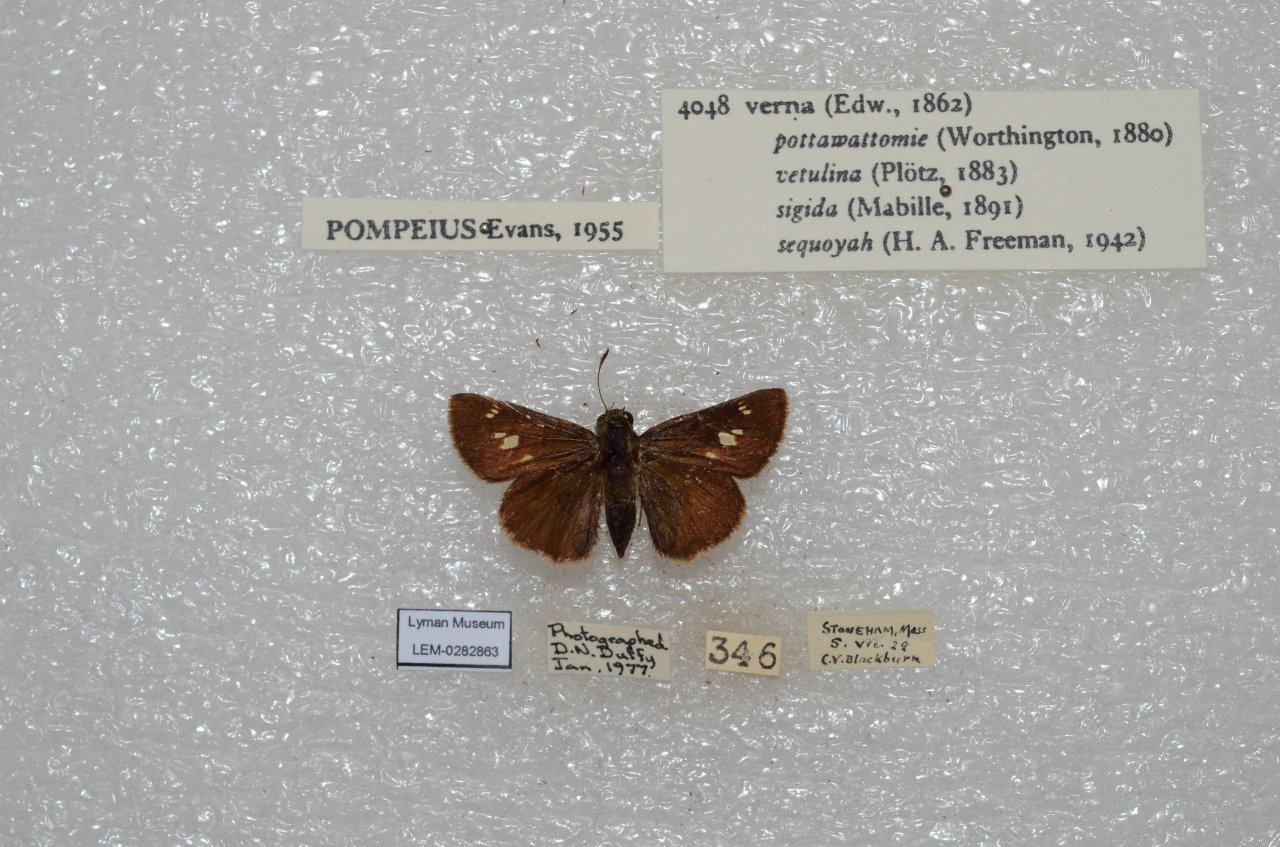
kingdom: Animalia
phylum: Arthropoda
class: Insecta
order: Lepidoptera
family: Hesperiidae
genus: Vernia
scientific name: Vernia verna
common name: Little Glassywing
